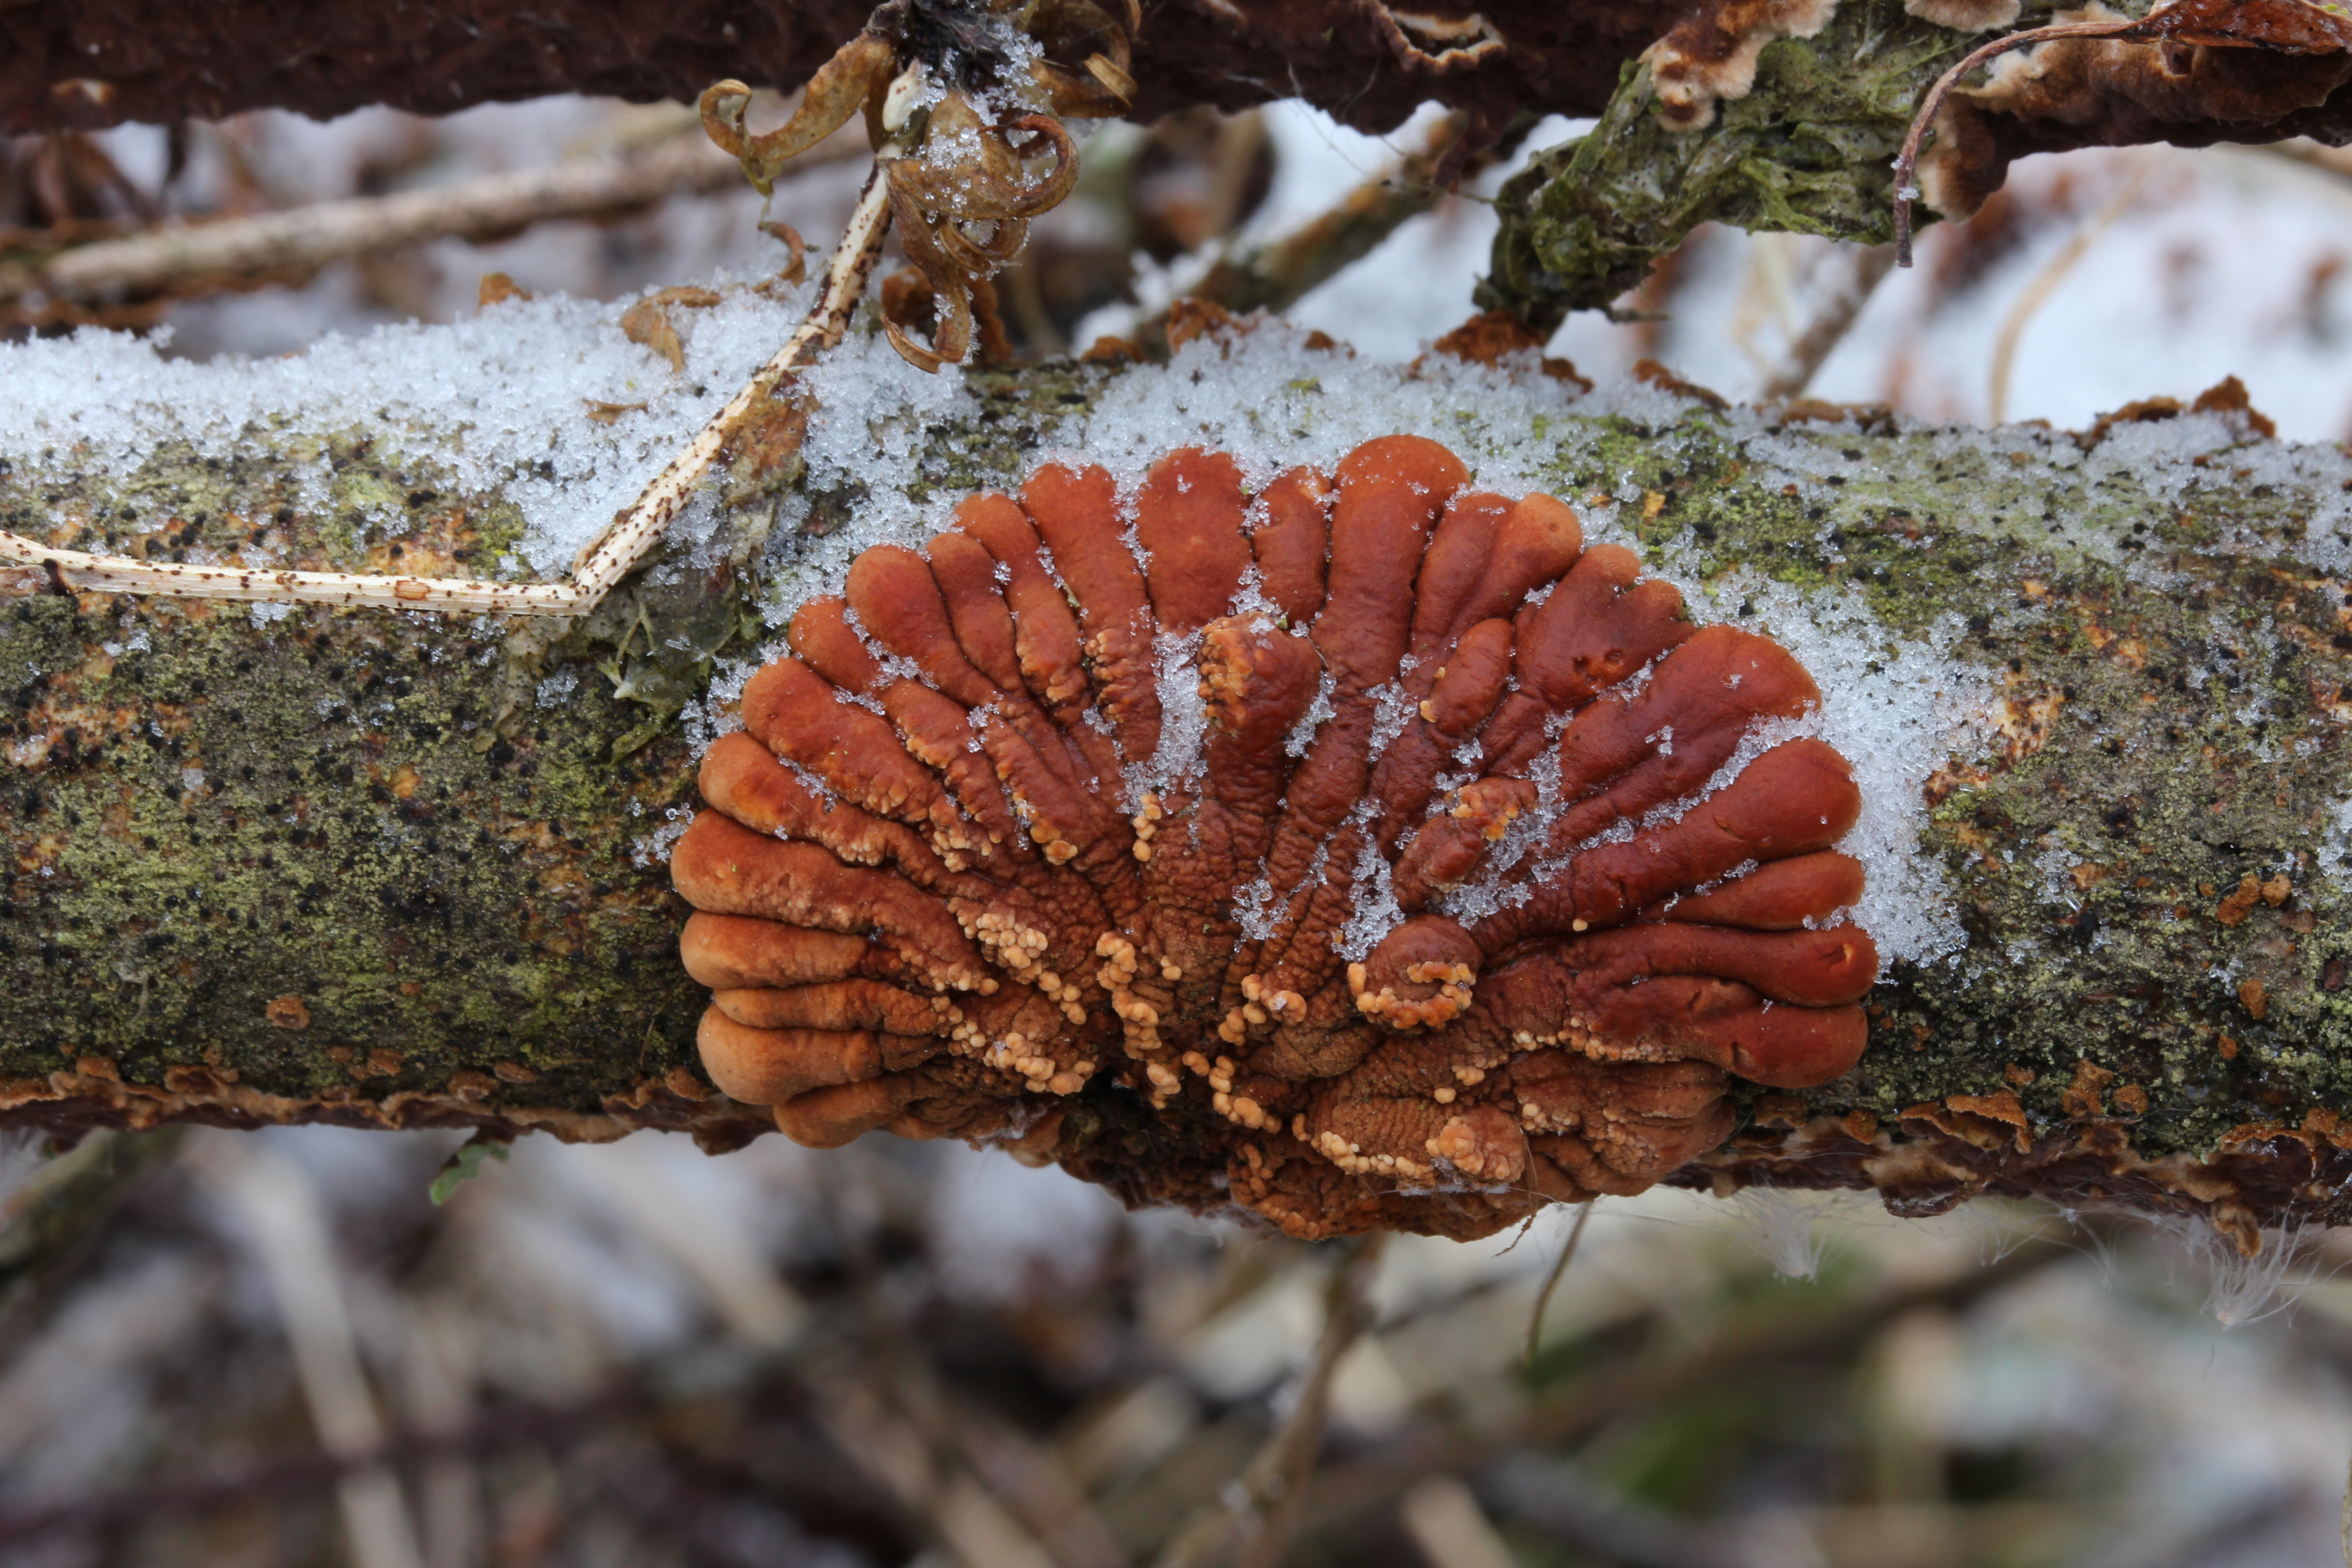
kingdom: Fungi
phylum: Ascomycota
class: Sordariomycetes
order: Hypocreales
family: Hypocreaceae
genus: Hypocreopsis
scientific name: Hypocreopsis lichenoides
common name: Willow gloves
